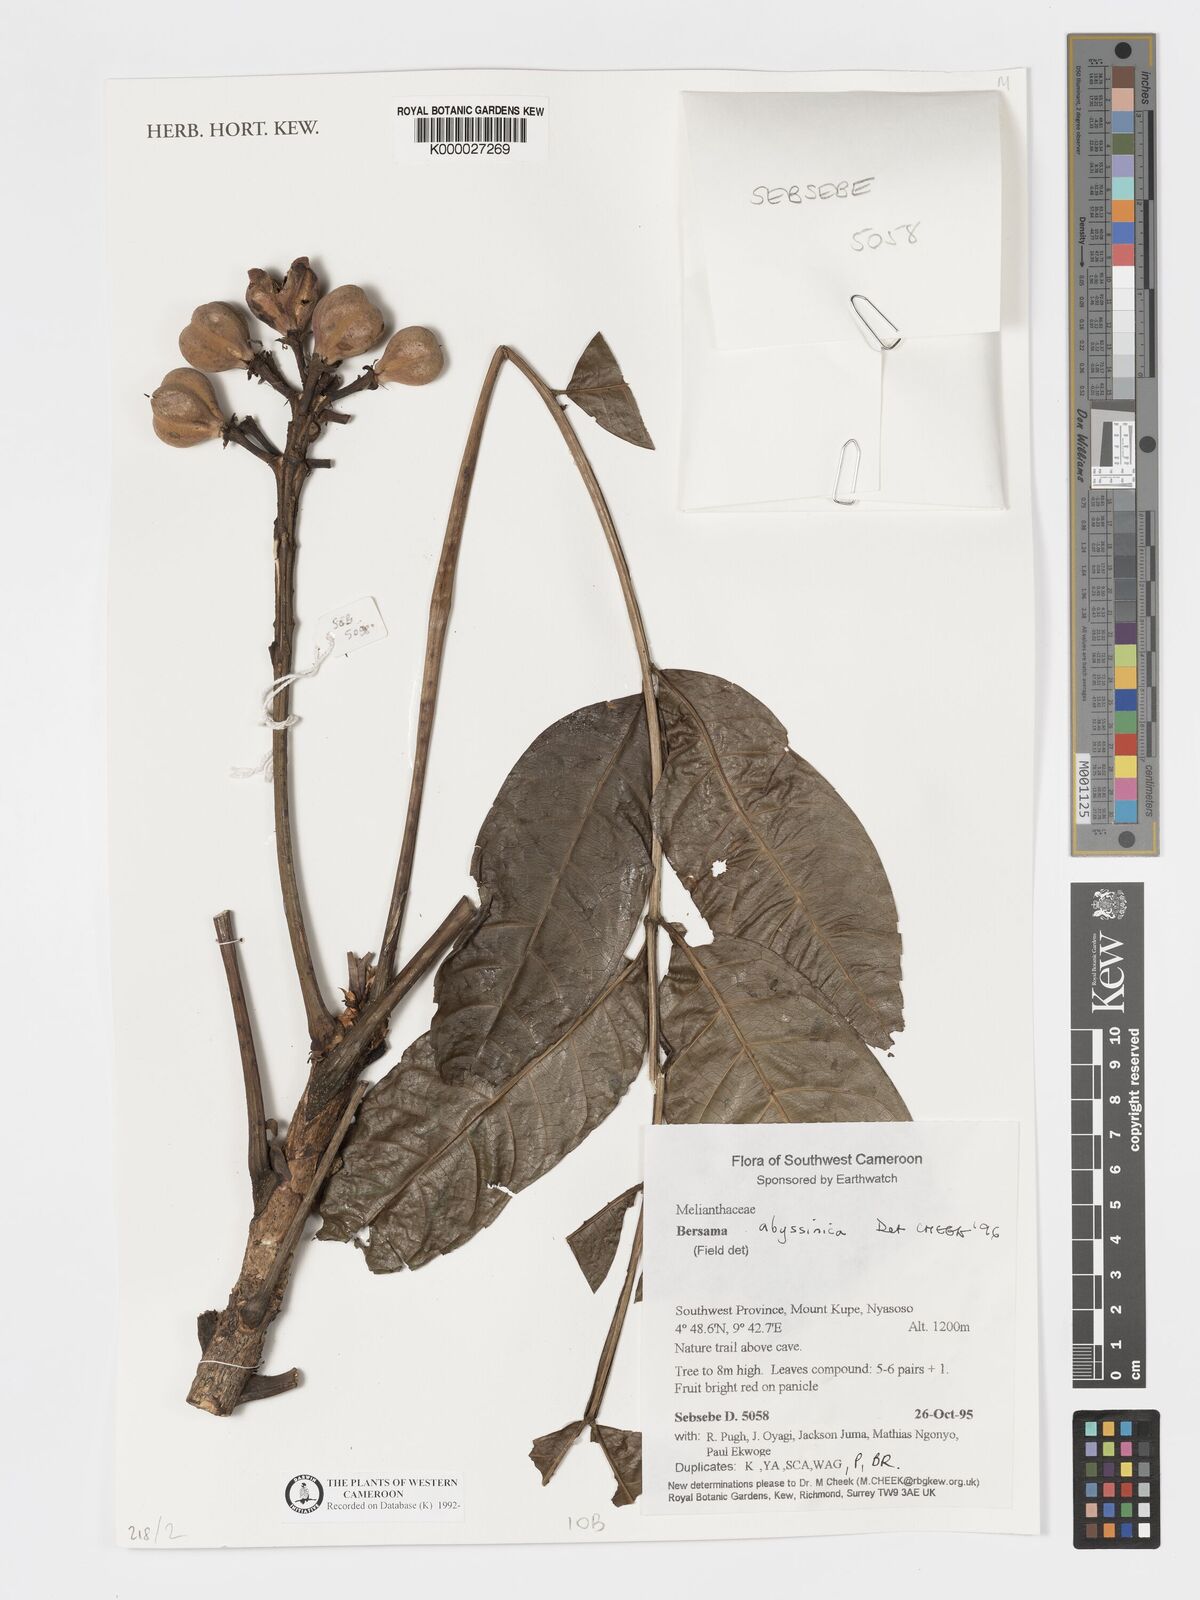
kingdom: Plantae
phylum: Tracheophyta
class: Magnoliopsida
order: Geraniales
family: Melianthaceae
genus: Bersama
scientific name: Bersama abyssinica
